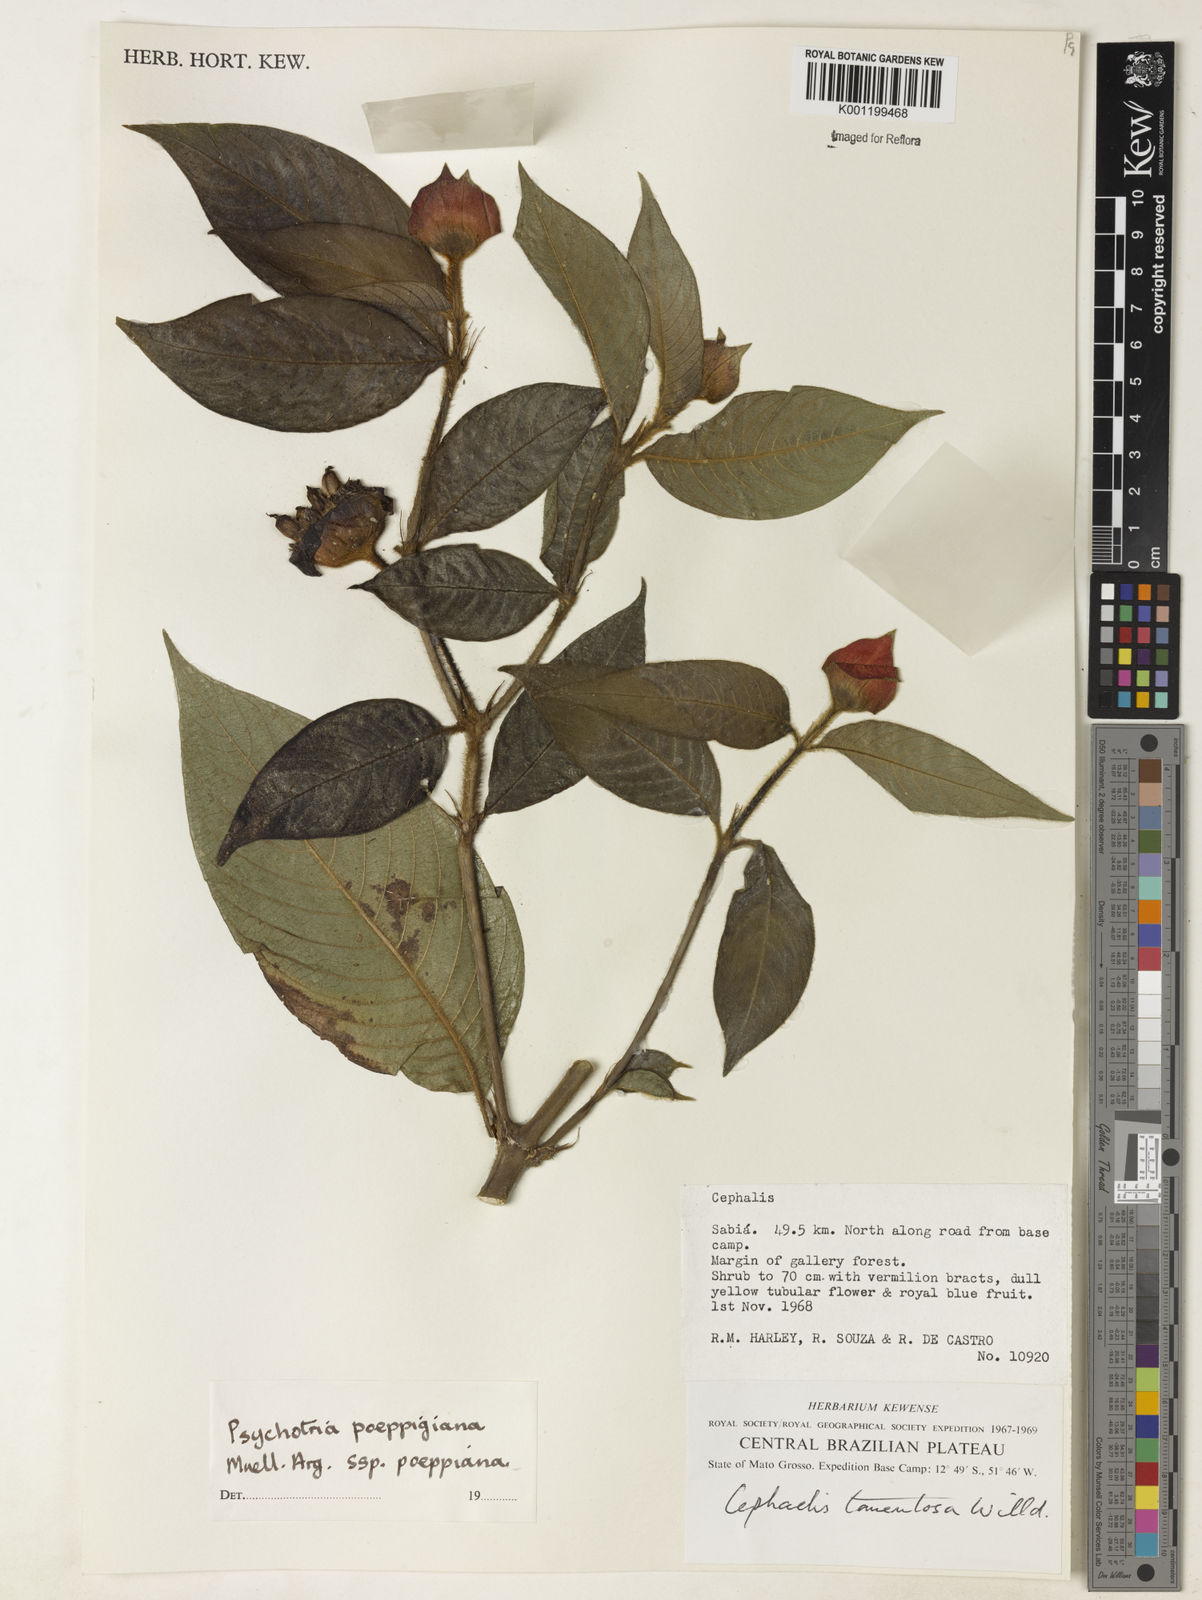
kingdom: Plantae
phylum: Tracheophyta
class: Magnoliopsida
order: Gentianales
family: Rubiaceae
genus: Psychotria
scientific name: Psychotria
